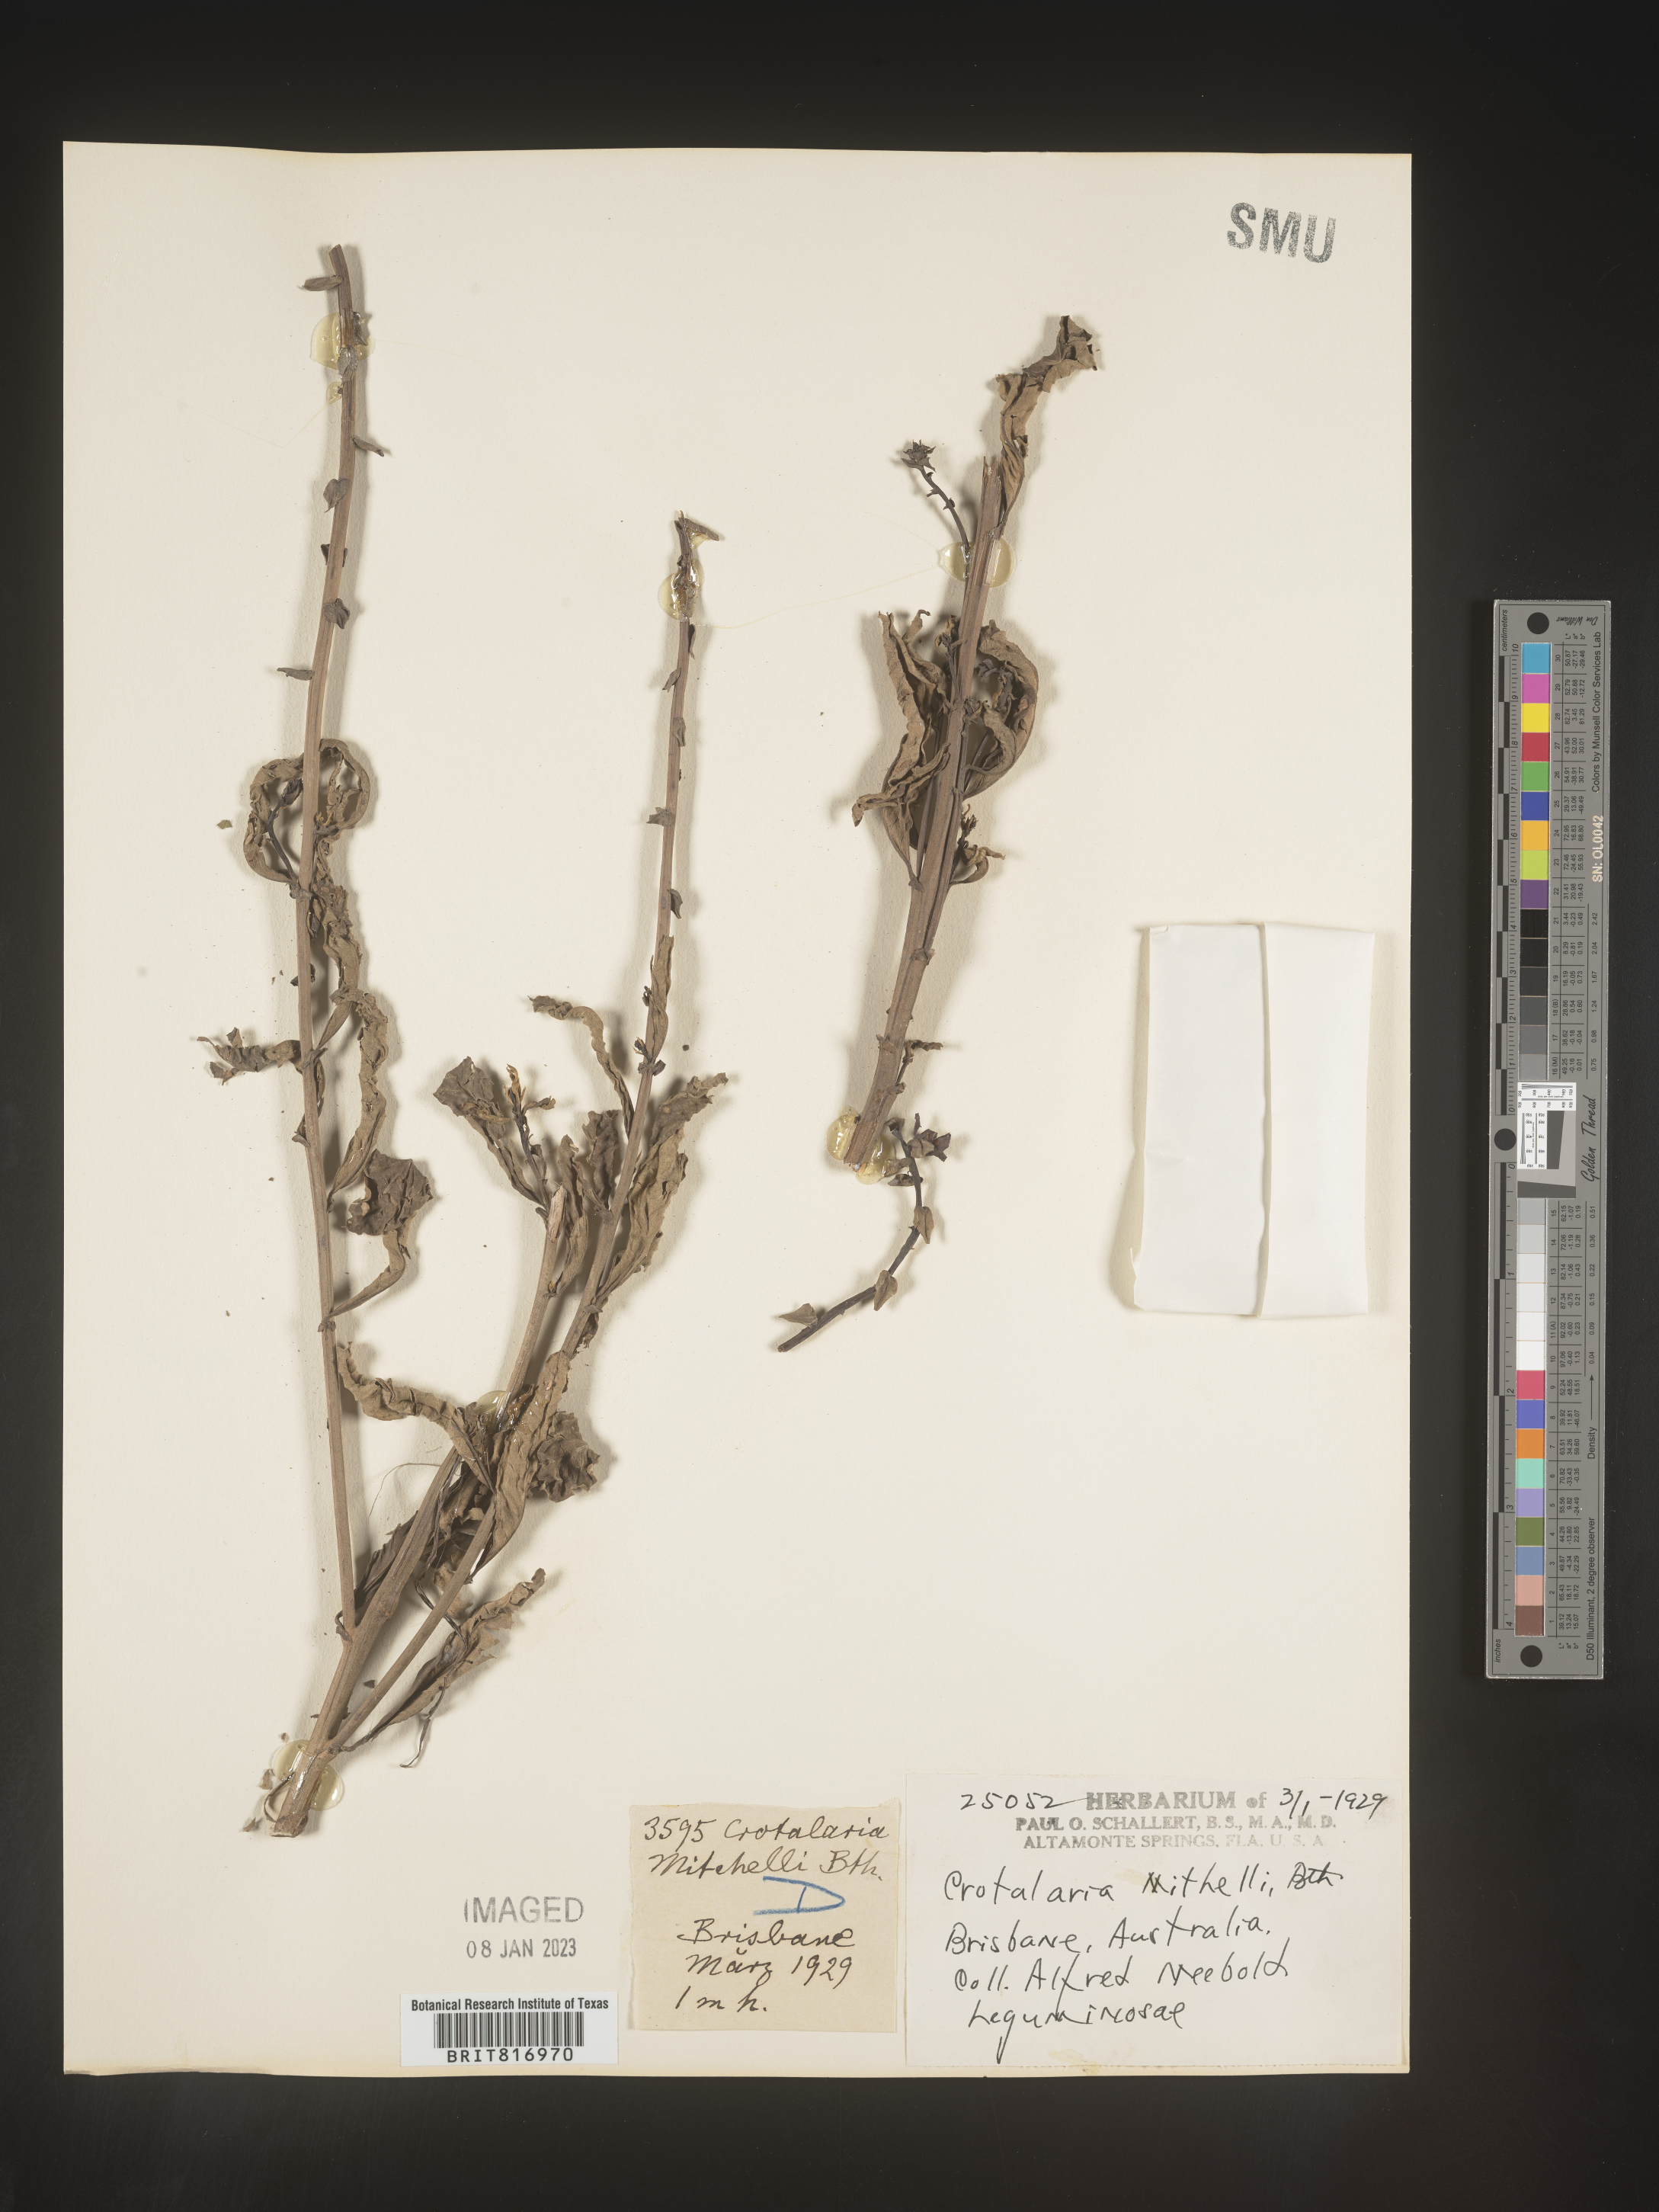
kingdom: Plantae
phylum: Tracheophyta
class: Magnoliopsida
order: Fabales
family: Fabaceae
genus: Crotalaria
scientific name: Crotalaria
